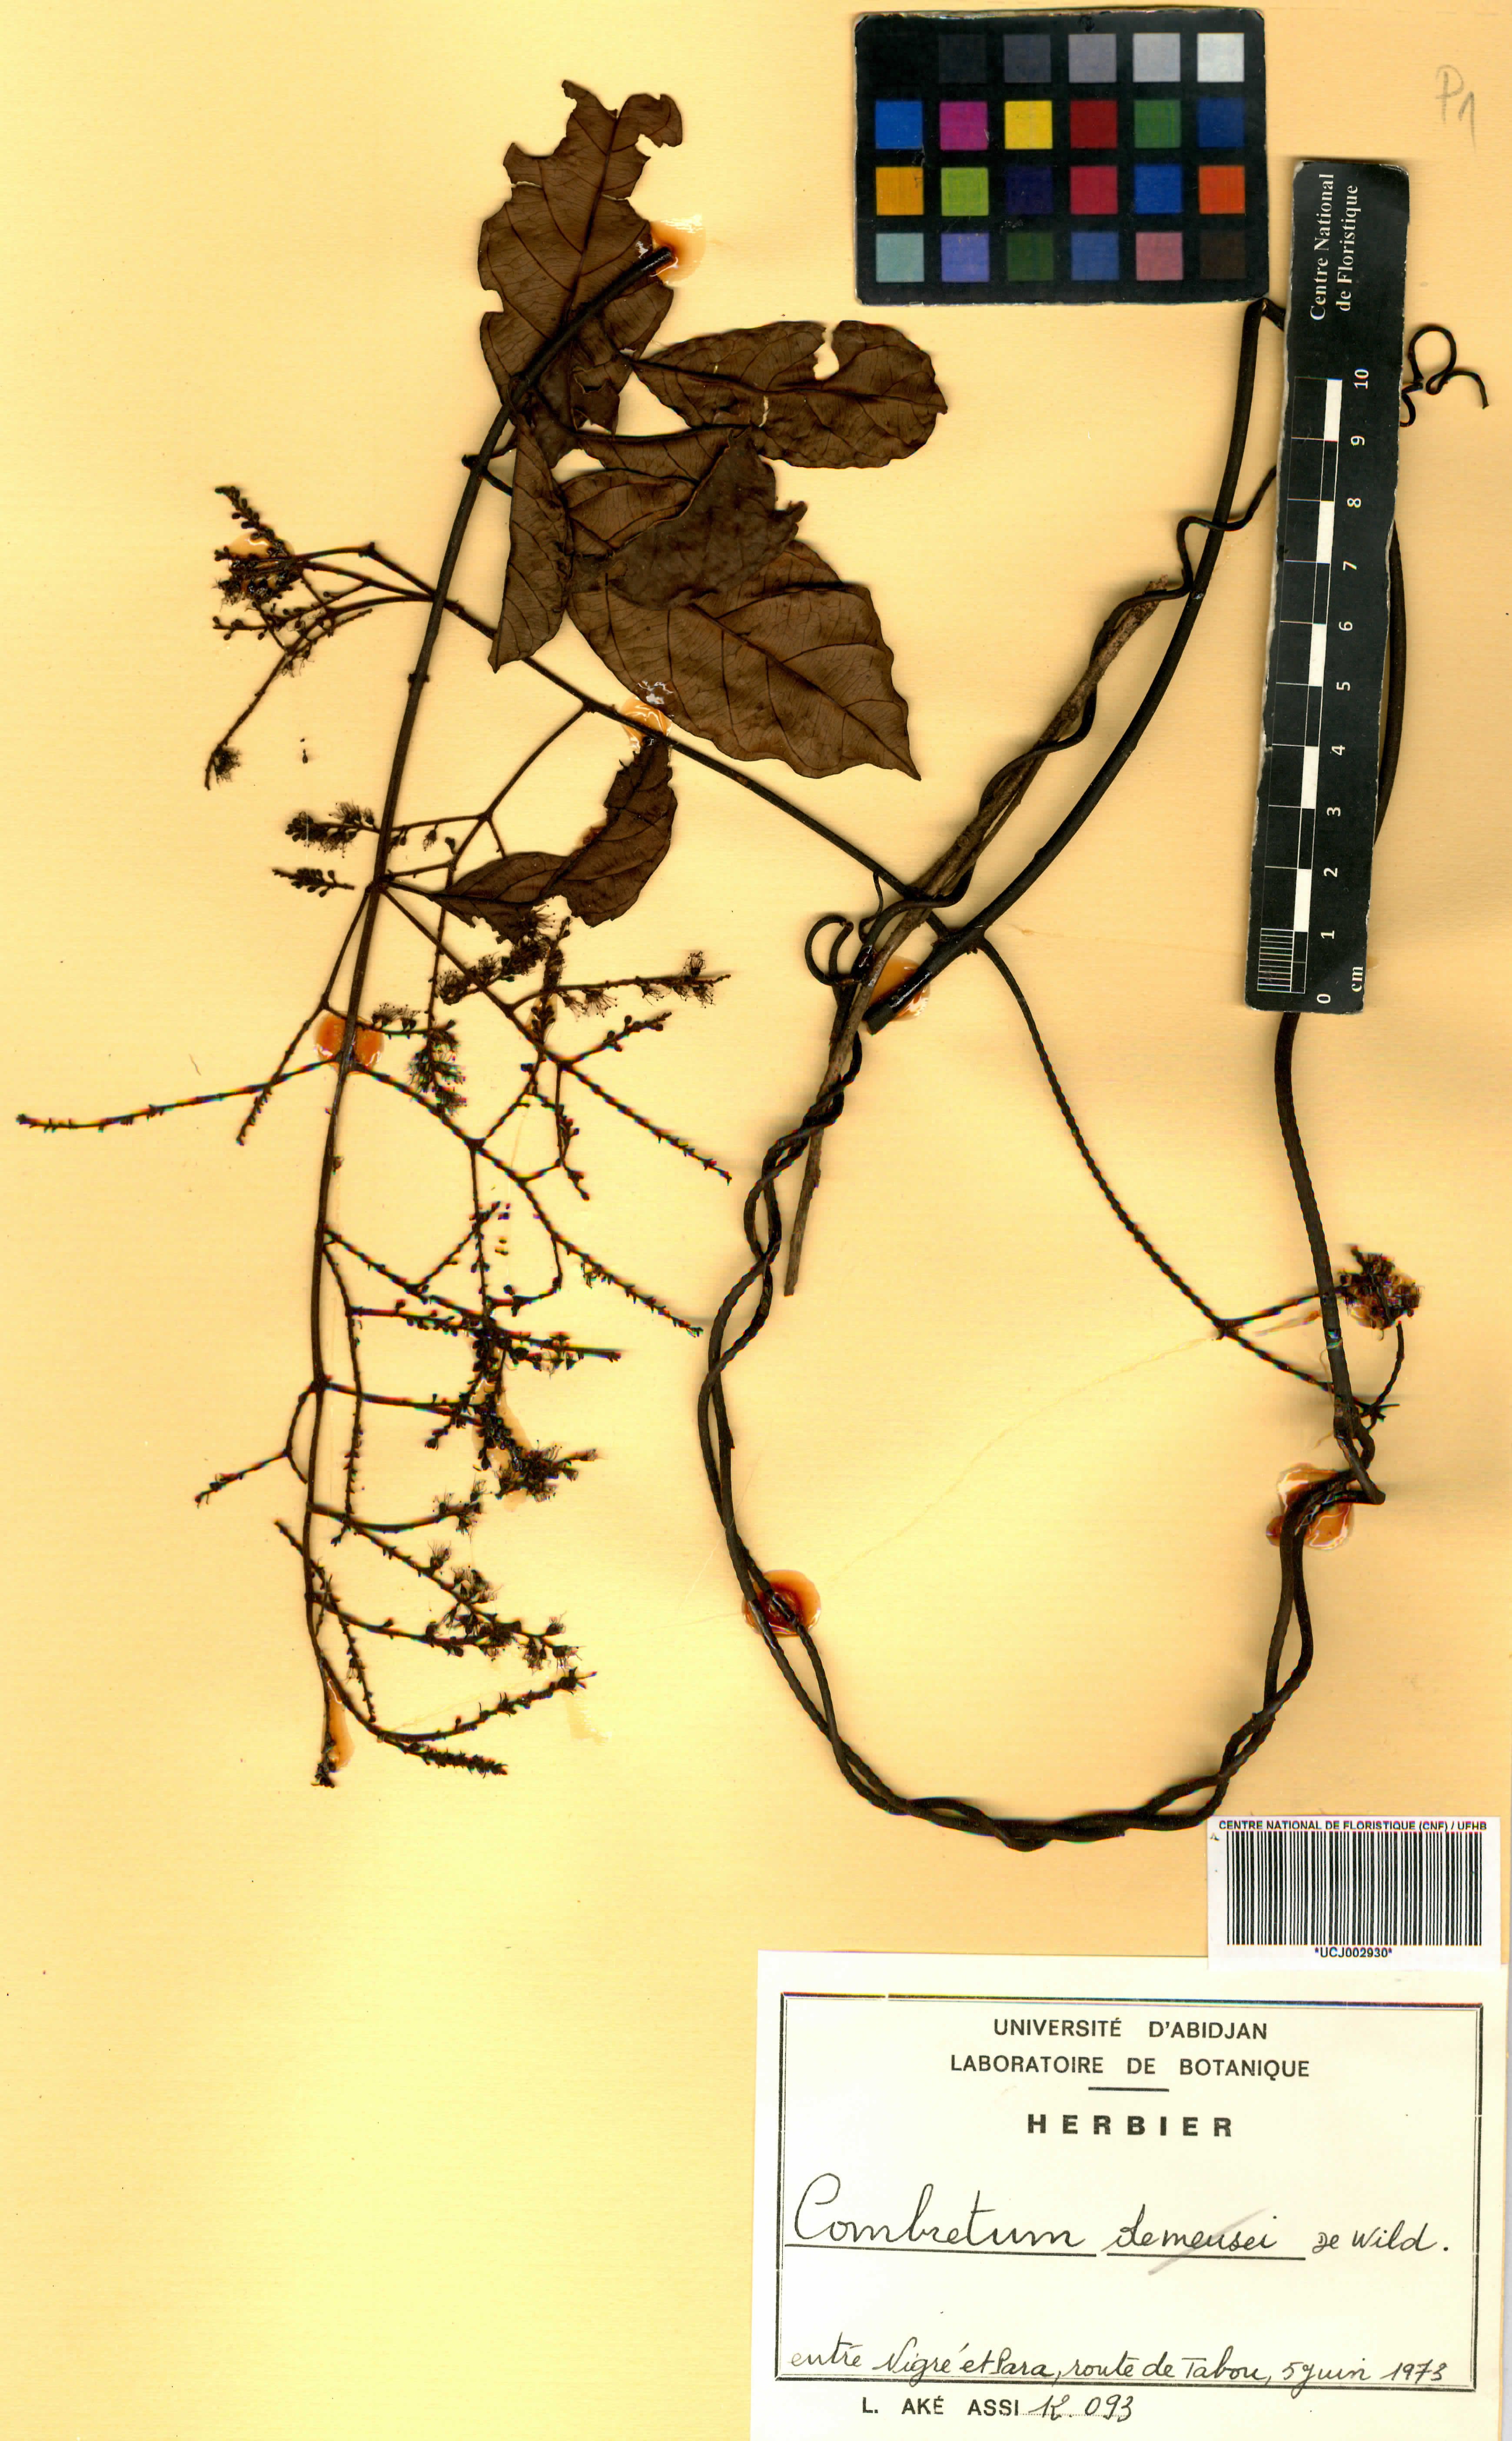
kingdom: Plantae
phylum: Tracheophyta
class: Magnoliopsida
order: Myrtales
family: Combretaceae
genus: Combretum
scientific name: Combretum demeusei
